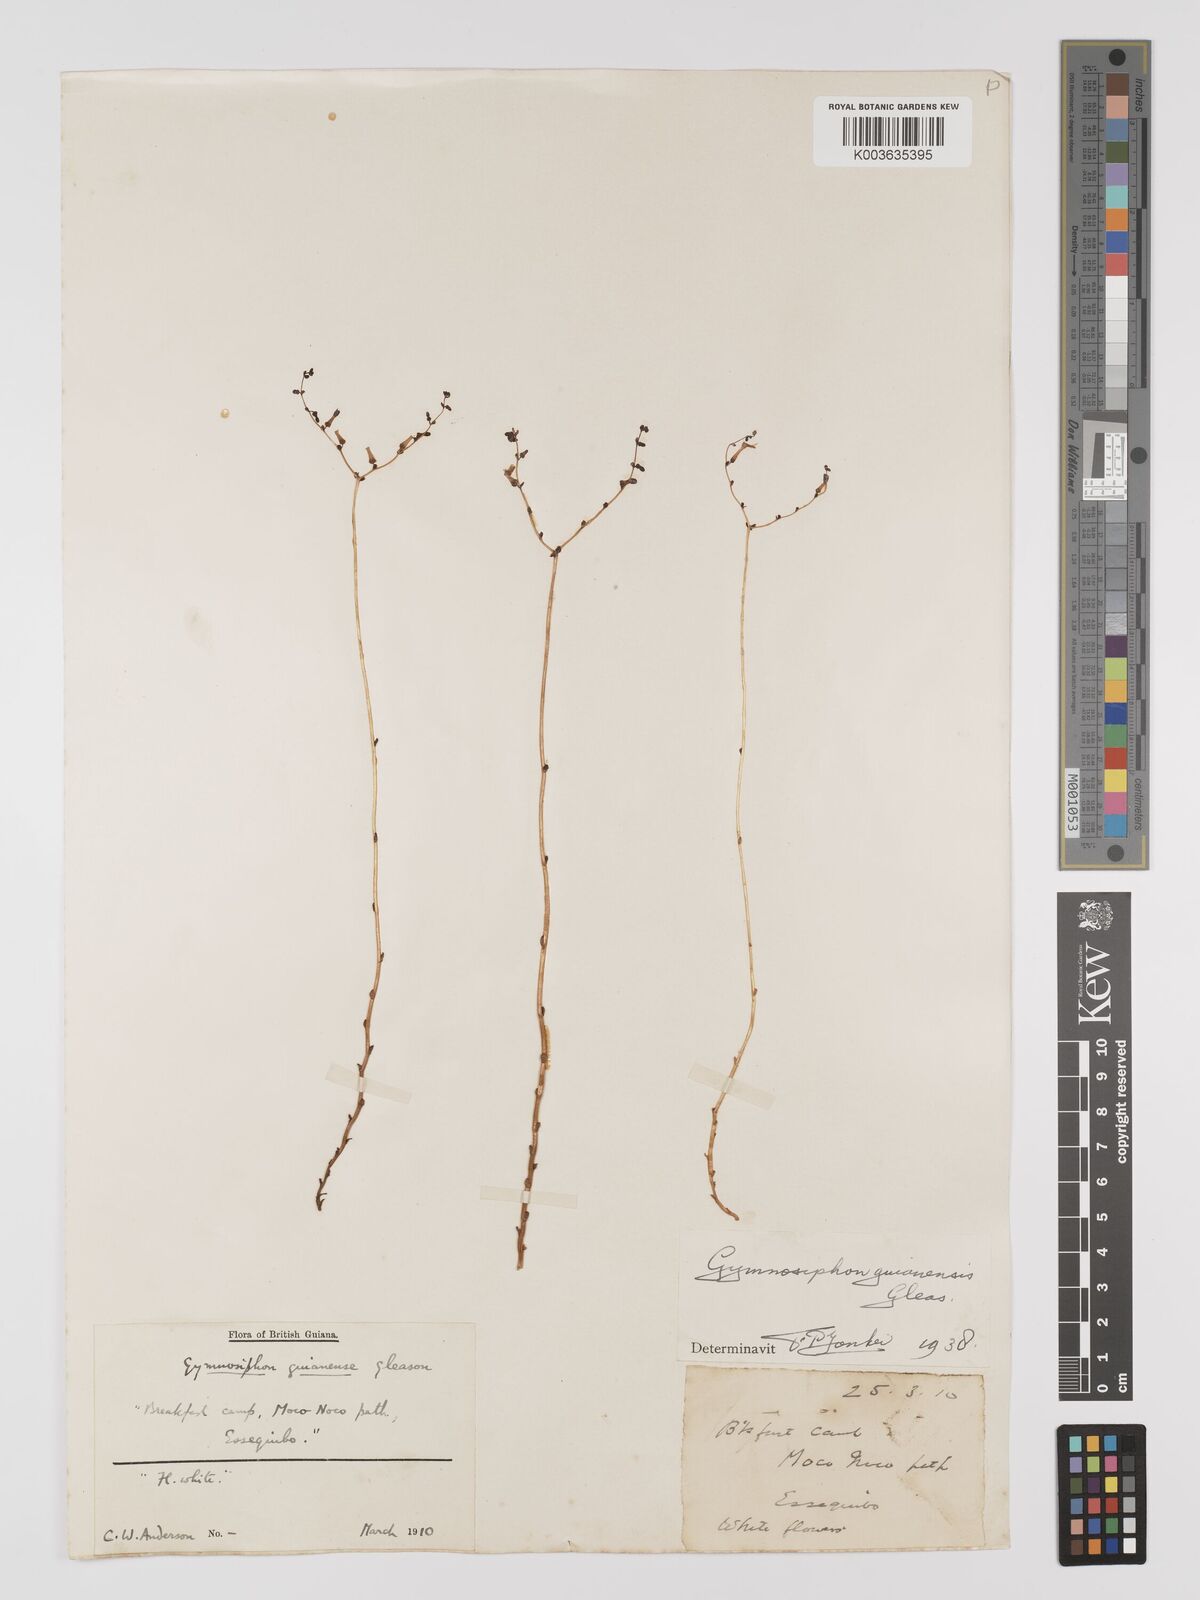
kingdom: Plantae
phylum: Tracheophyta
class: Liliopsida
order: Dioscoreales
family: Burmanniaceae
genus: Gymnosiphon
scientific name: Gymnosiphon guianensis
